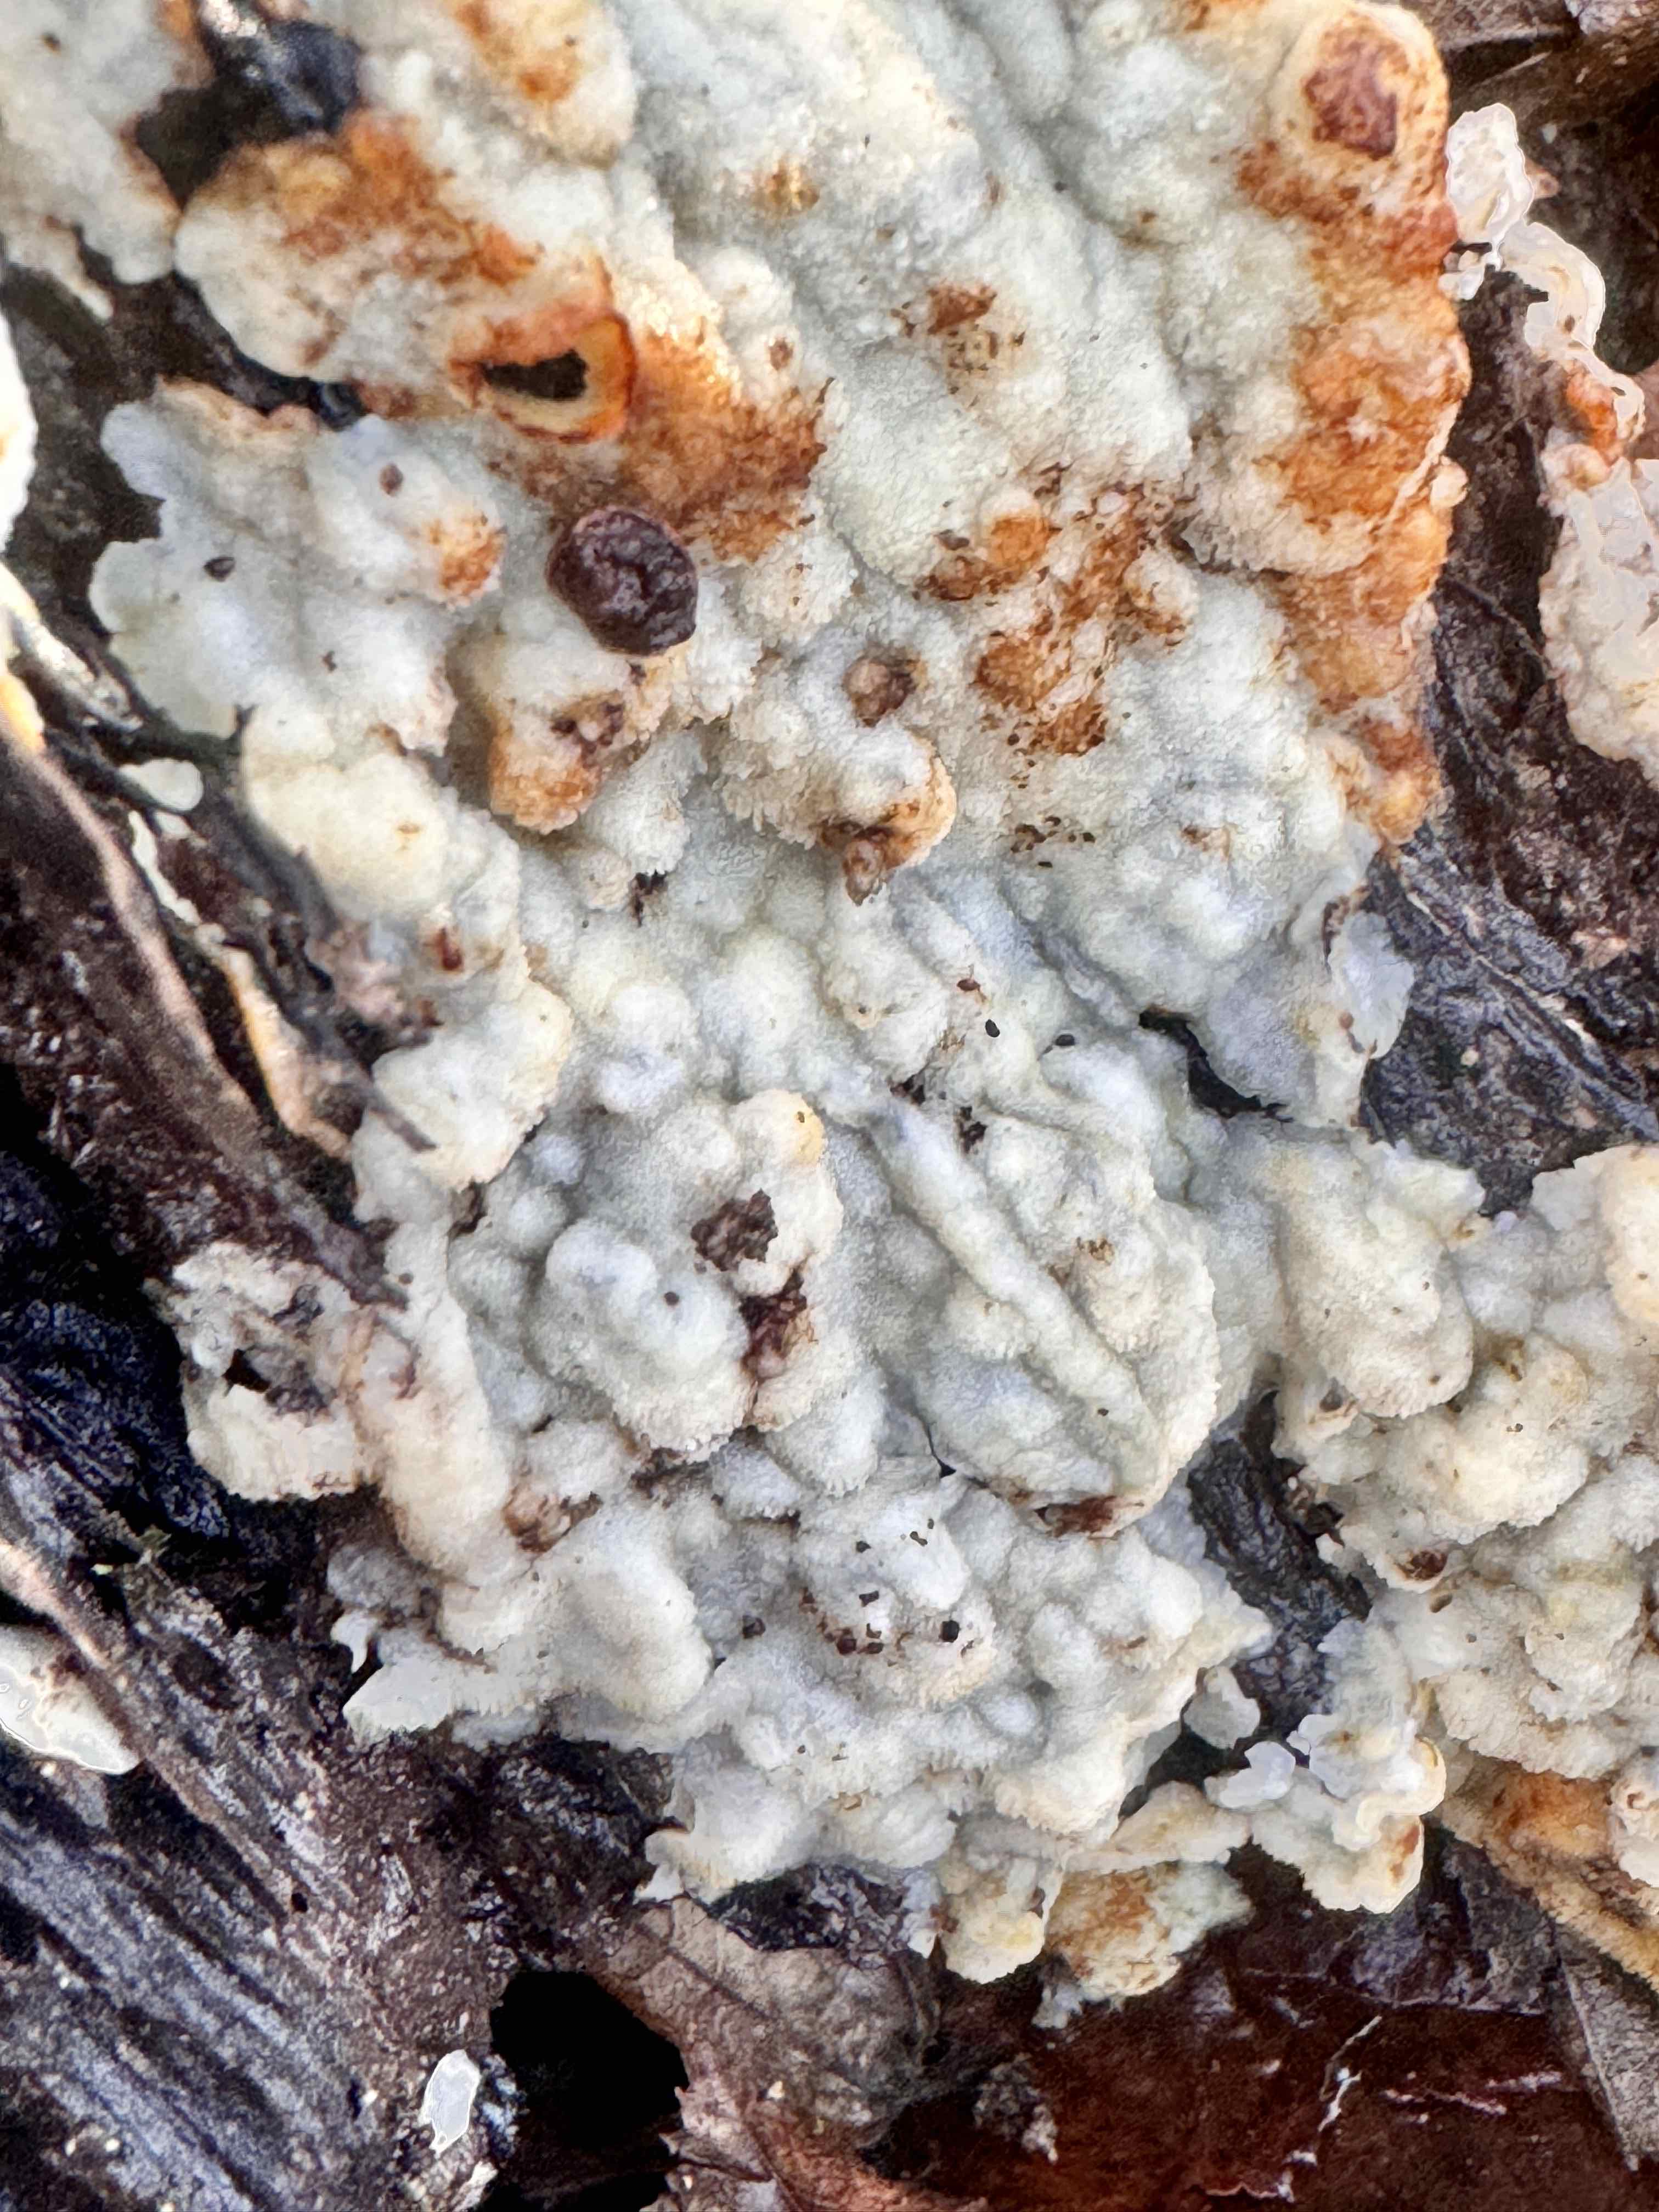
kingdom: Fungi
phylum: Basidiomycota
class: Agaricomycetes
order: Polyporales
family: Meruliaceae
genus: Physisporinus
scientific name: Physisporinus vitreus
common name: mastesvamp
